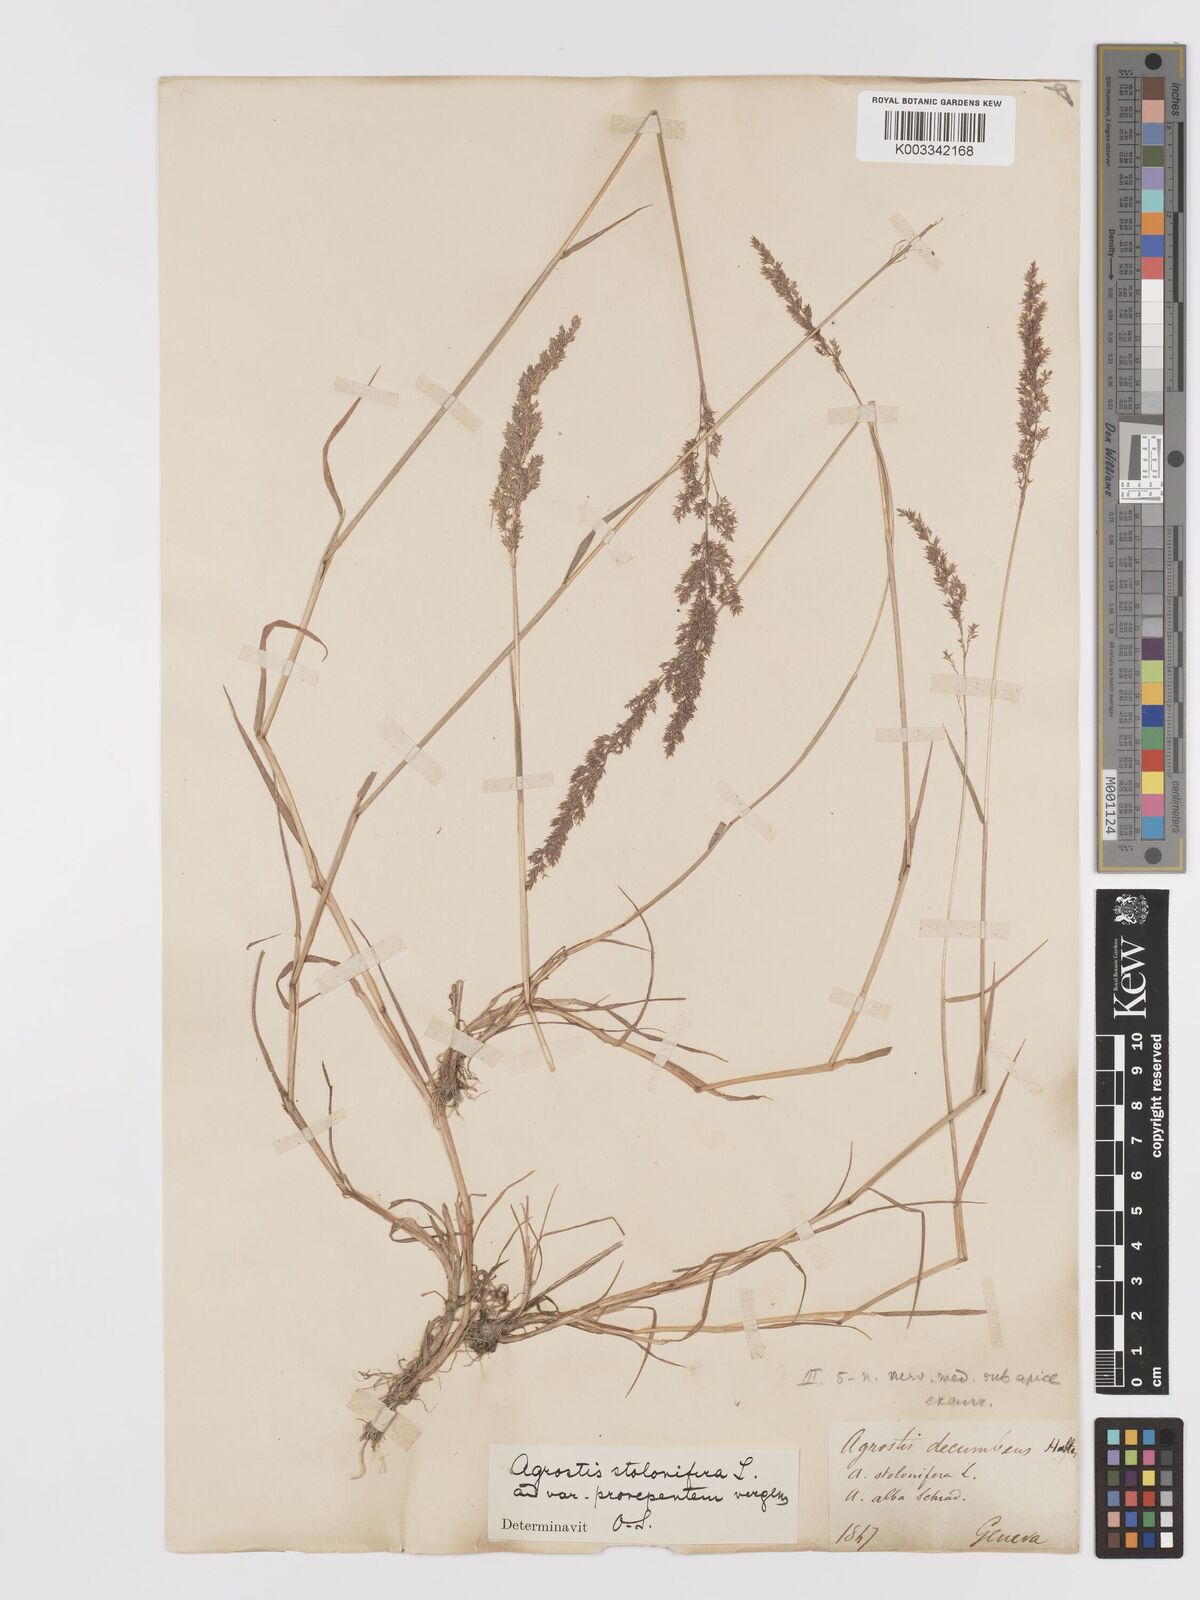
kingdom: Plantae
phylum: Tracheophyta
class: Liliopsida
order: Poales
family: Poaceae
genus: Agrostis
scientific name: Agrostis stolonifera
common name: Creeping bentgrass
